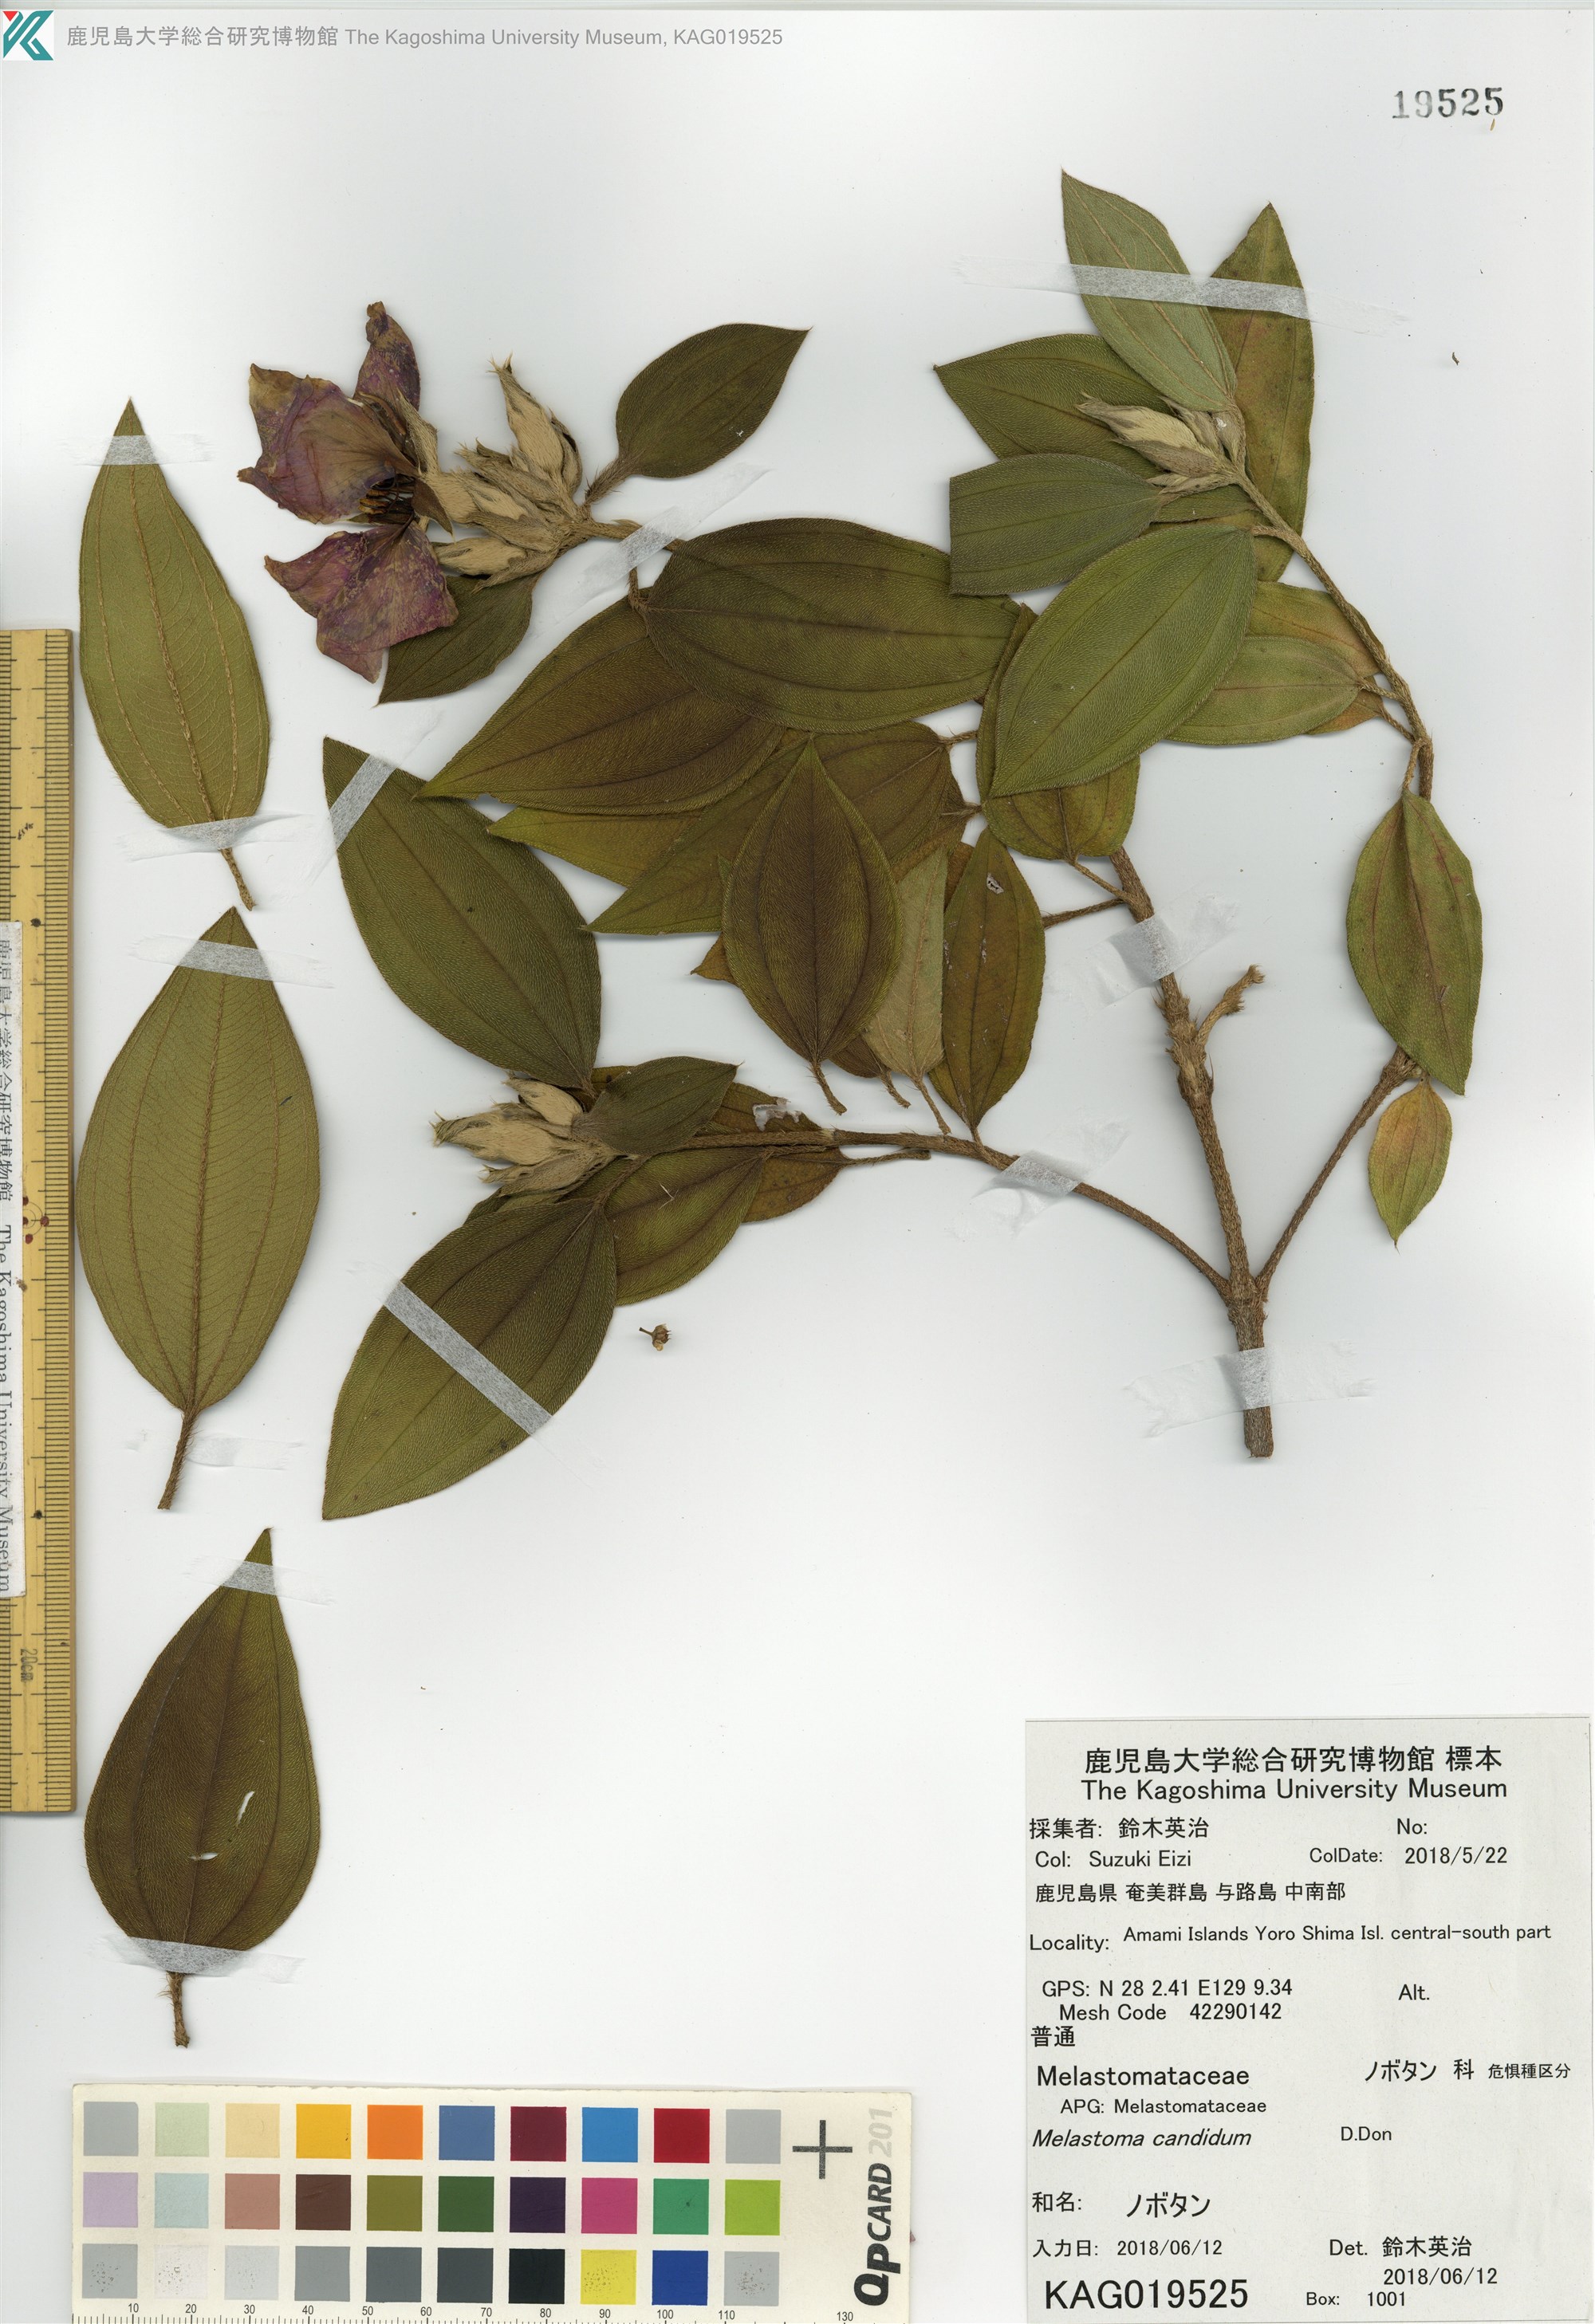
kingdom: Plantae
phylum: Tracheophyta
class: Magnoliopsida
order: Myrtales
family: Melastomataceae
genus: Melastoma
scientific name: Melastoma malabathricum
